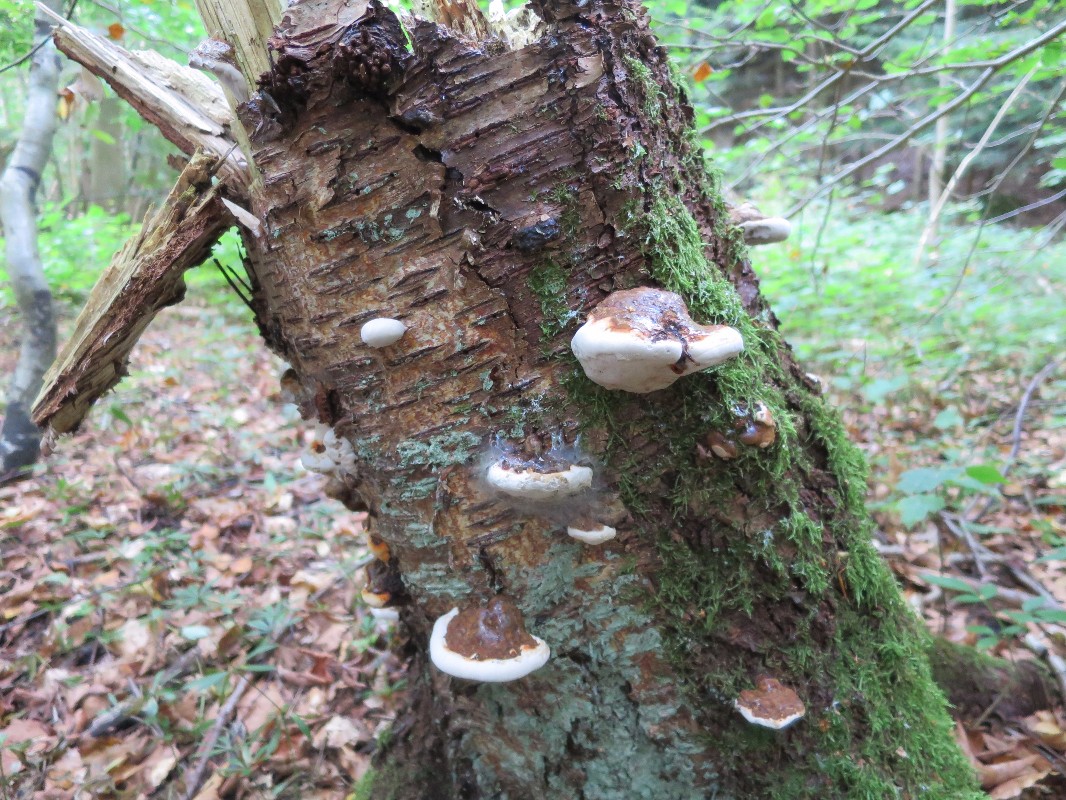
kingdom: Fungi
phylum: Basidiomycota
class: Agaricomycetes
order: Polyporales
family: Polyporaceae
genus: Ganoderma
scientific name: Ganoderma applanatum
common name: flad lakporesvamp
